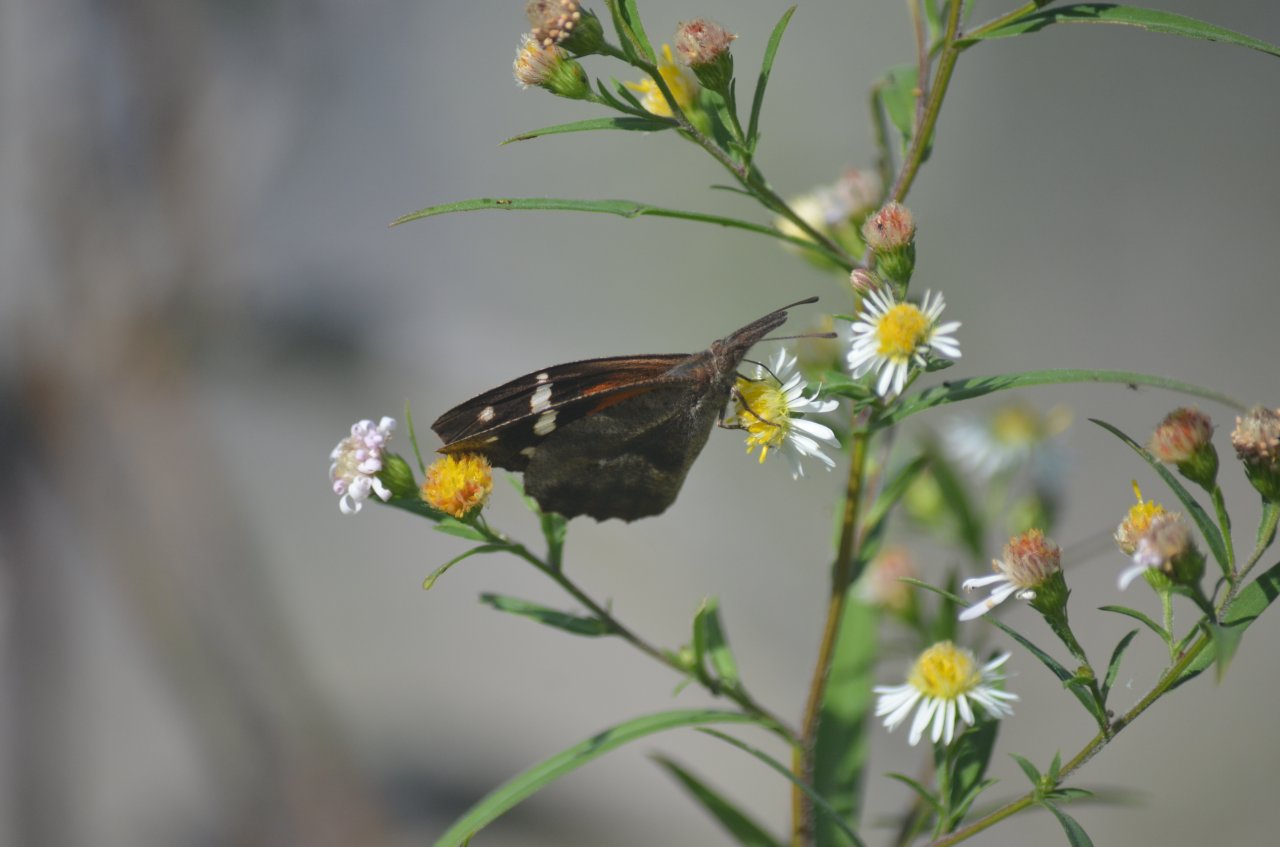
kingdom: Animalia
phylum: Arthropoda
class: Insecta
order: Lepidoptera
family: Nymphalidae
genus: Libytheana
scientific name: Libytheana carinenta
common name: American Snout
